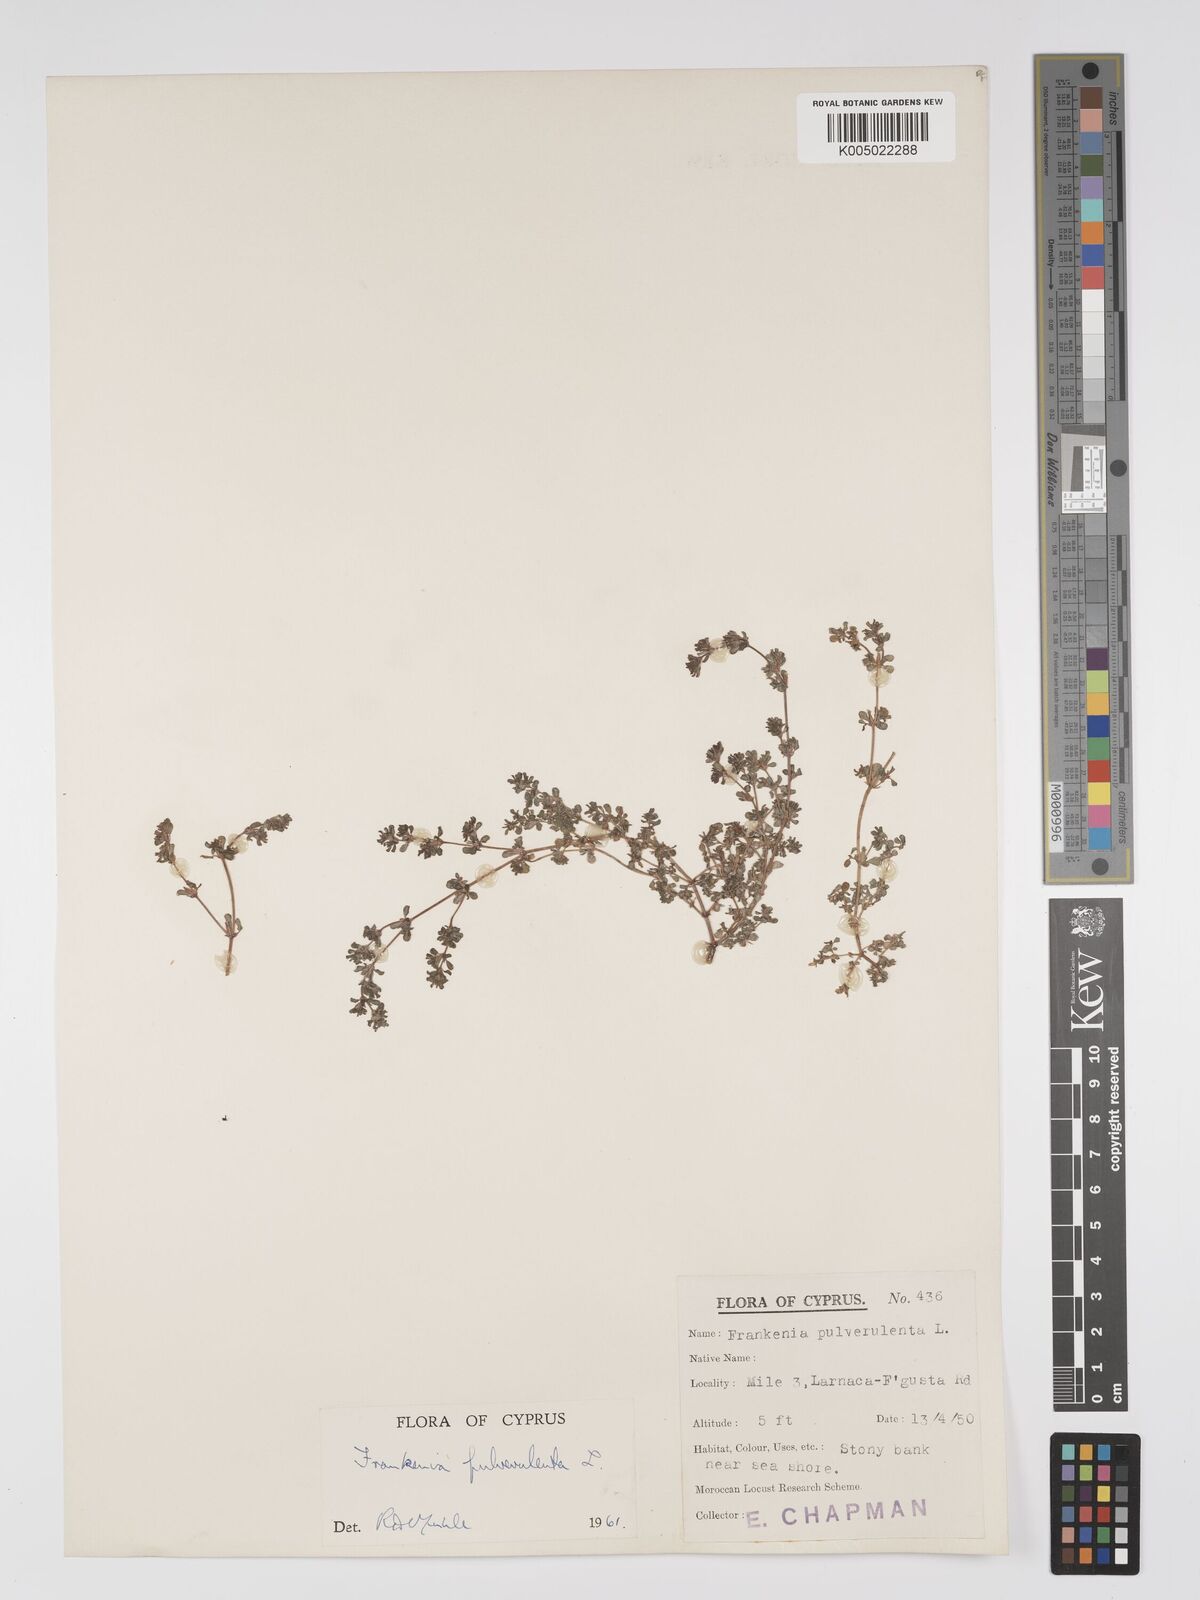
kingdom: Plantae
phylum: Tracheophyta
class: Magnoliopsida
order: Caryophyllales
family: Frankeniaceae
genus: Frankenia
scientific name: Frankenia pulverulenta
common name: European seaheath
